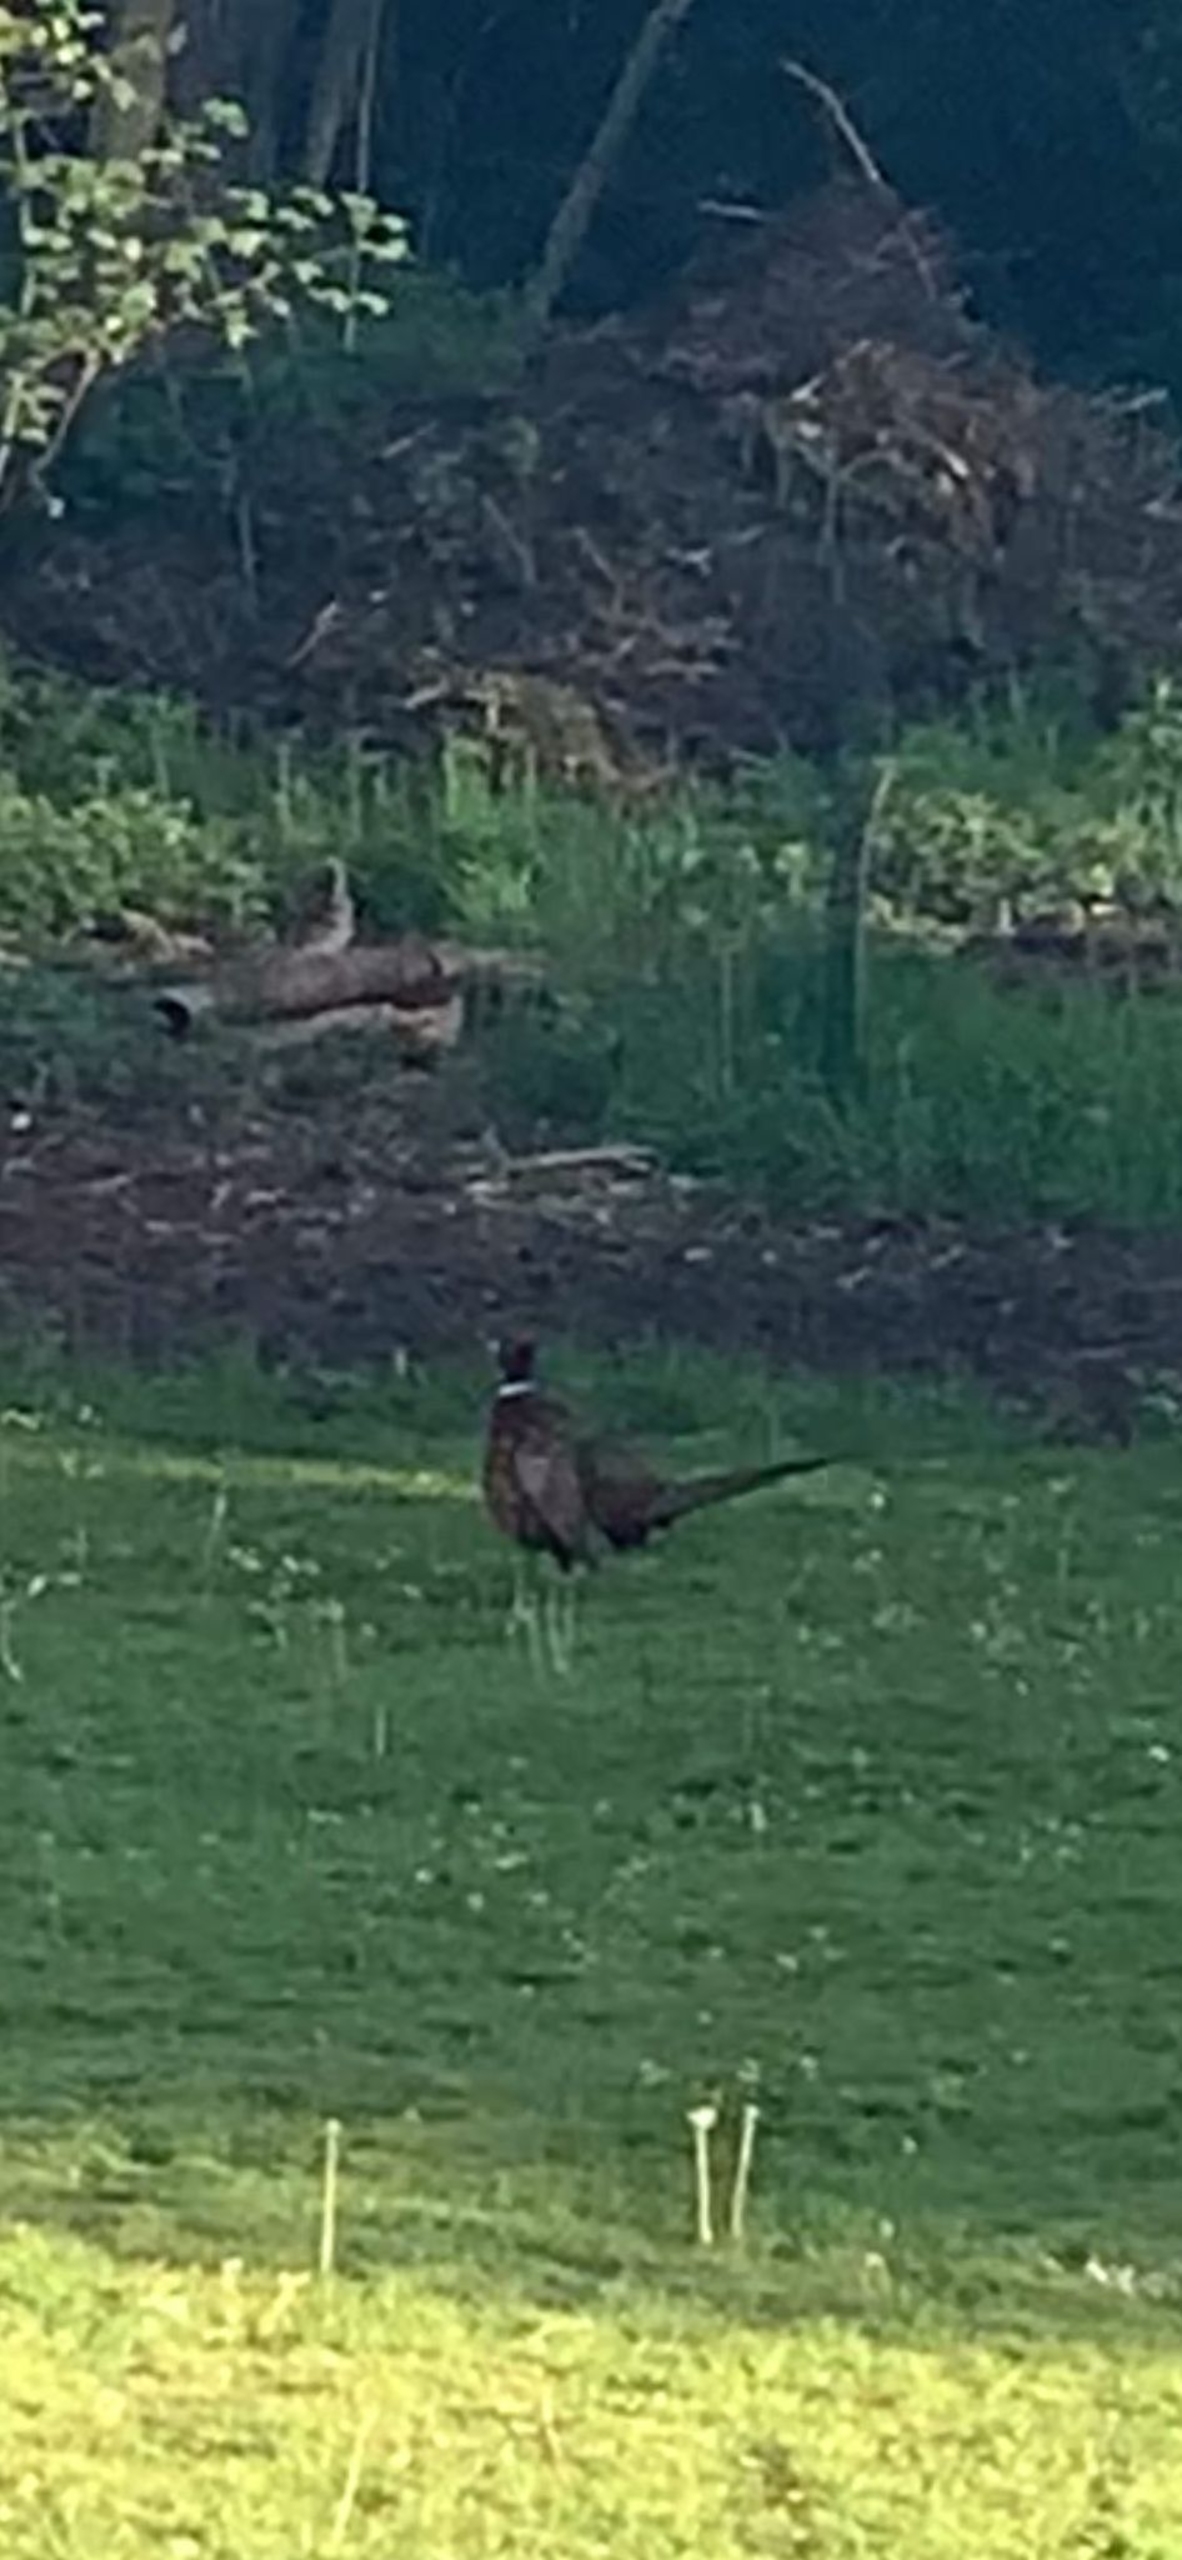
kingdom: Animalia
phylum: Chordata
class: Aves
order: Galliformes
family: Phasianidae
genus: Phasianus
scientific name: Phasianus colchicus
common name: Fasan
